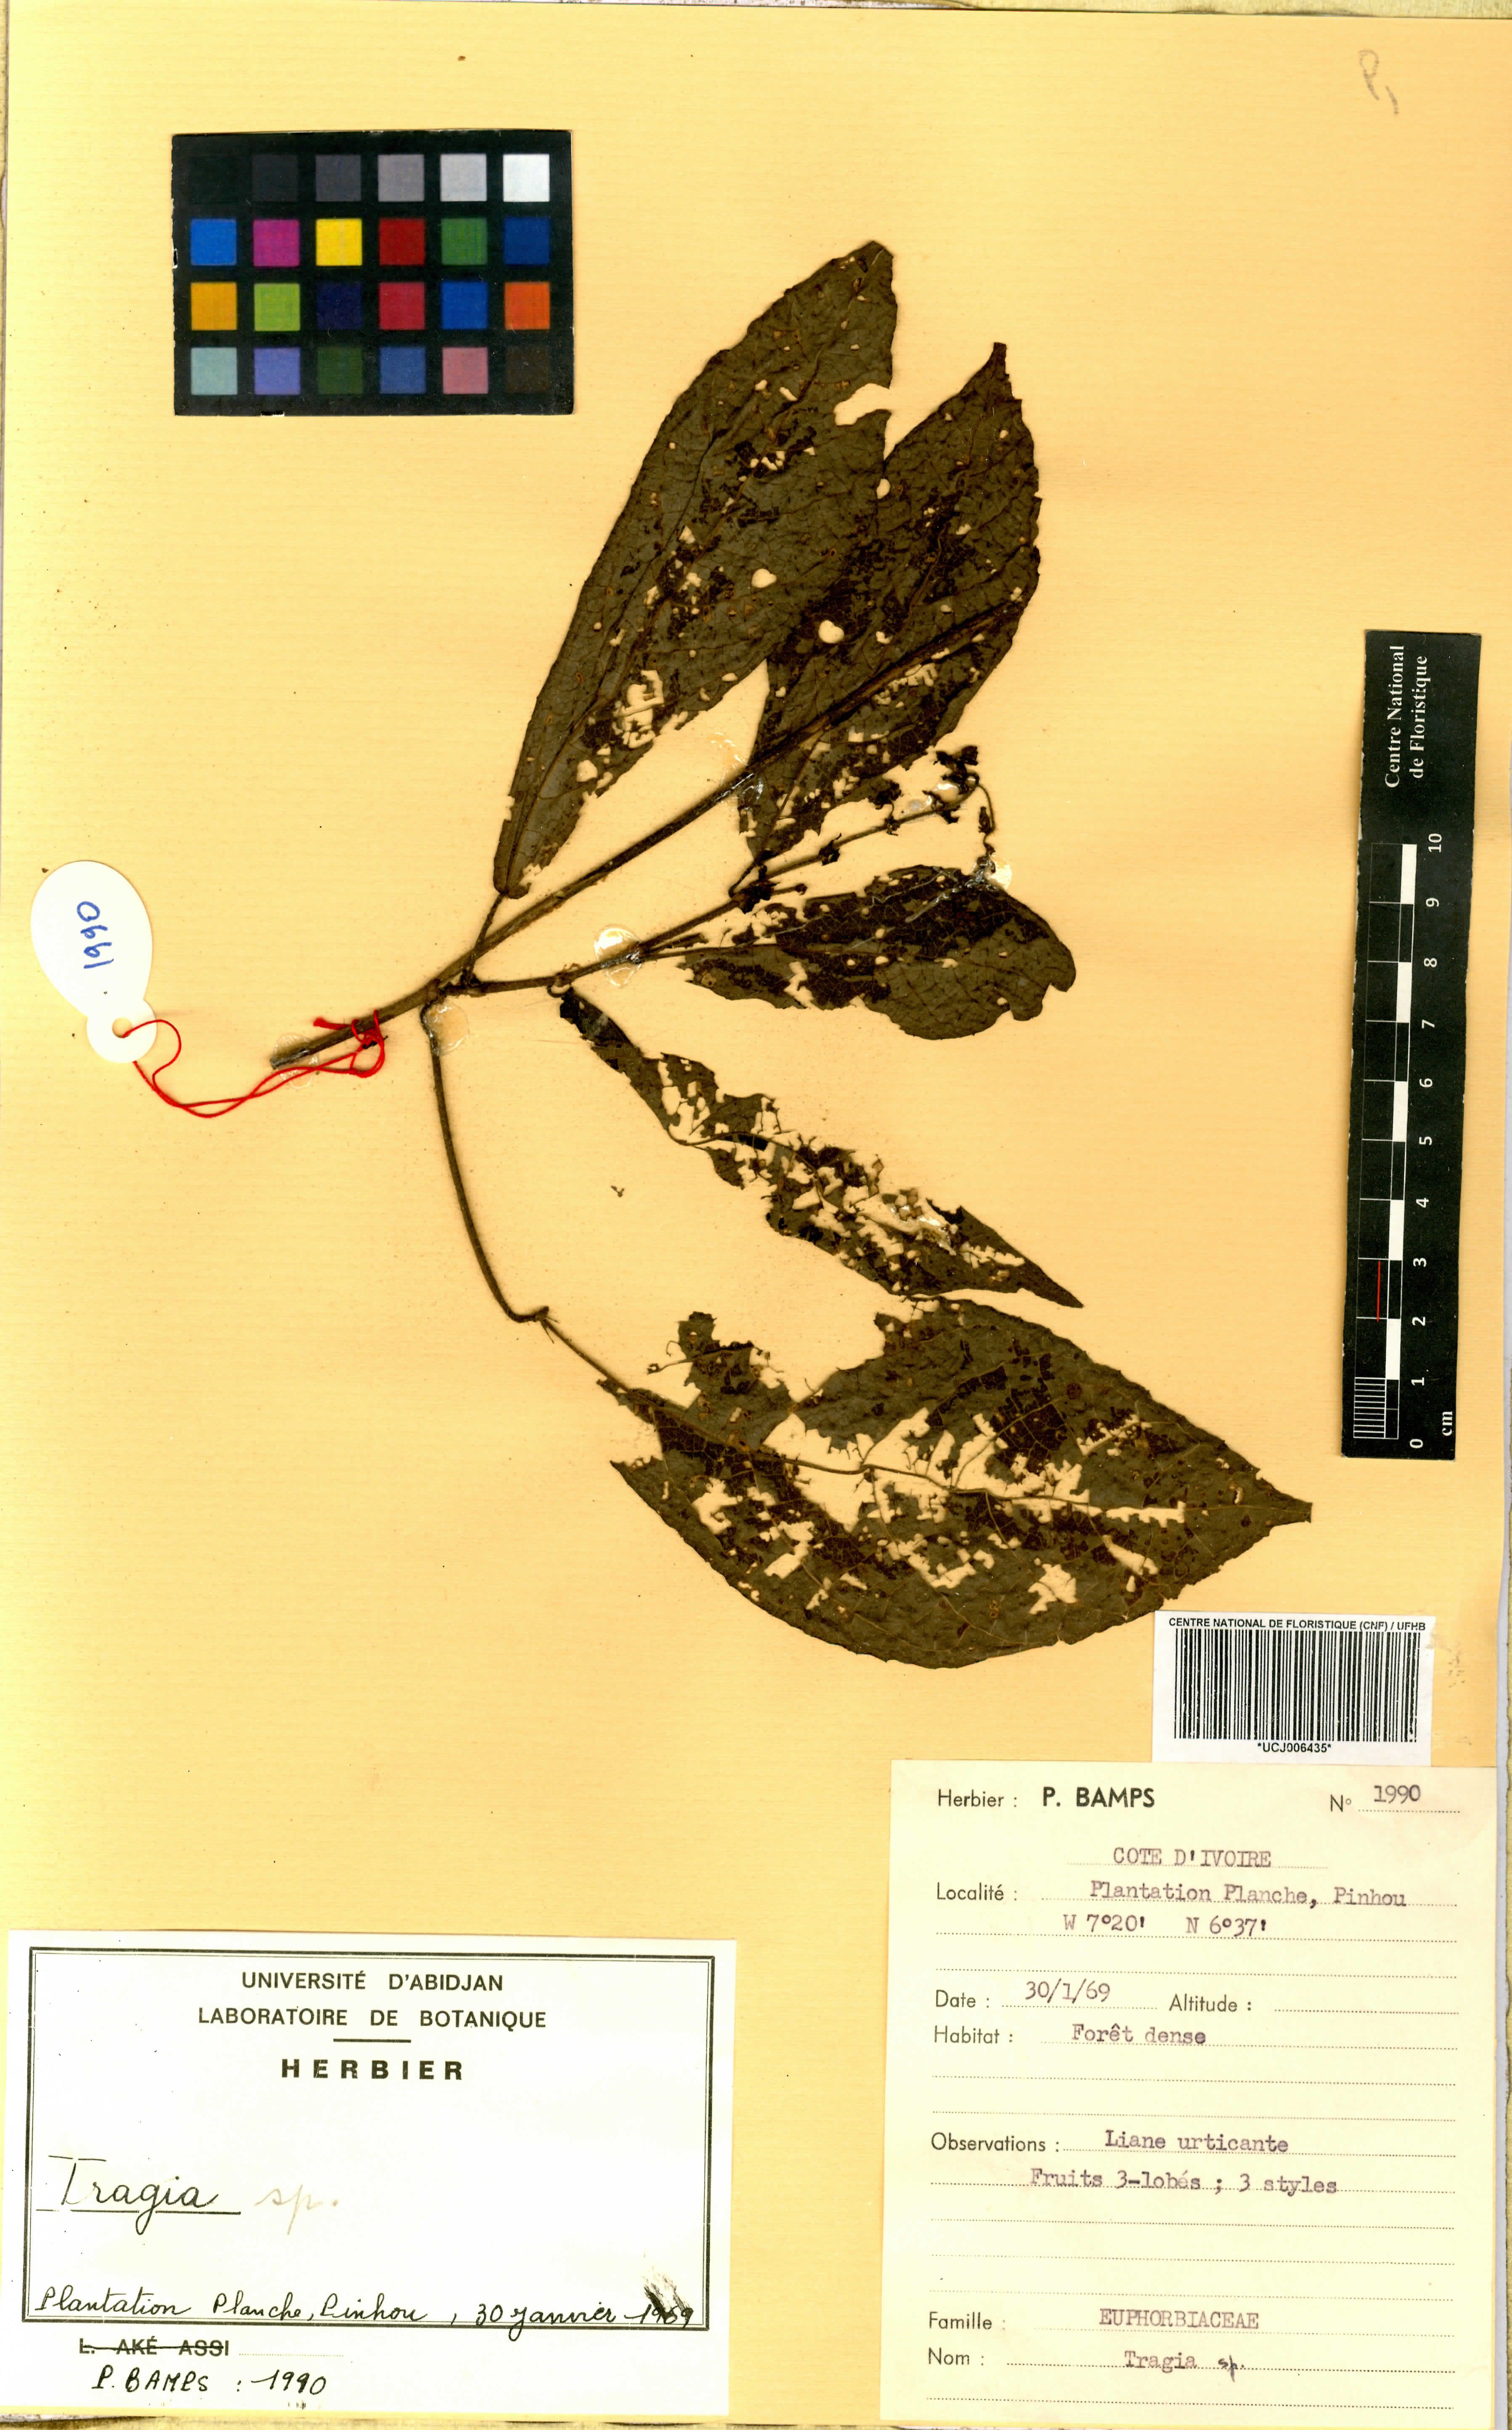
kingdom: Plantae
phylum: Tracheophyta
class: Magnoliopsida
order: Malpighiales
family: Euphorbiaceae
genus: Tragia
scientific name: Tragia
